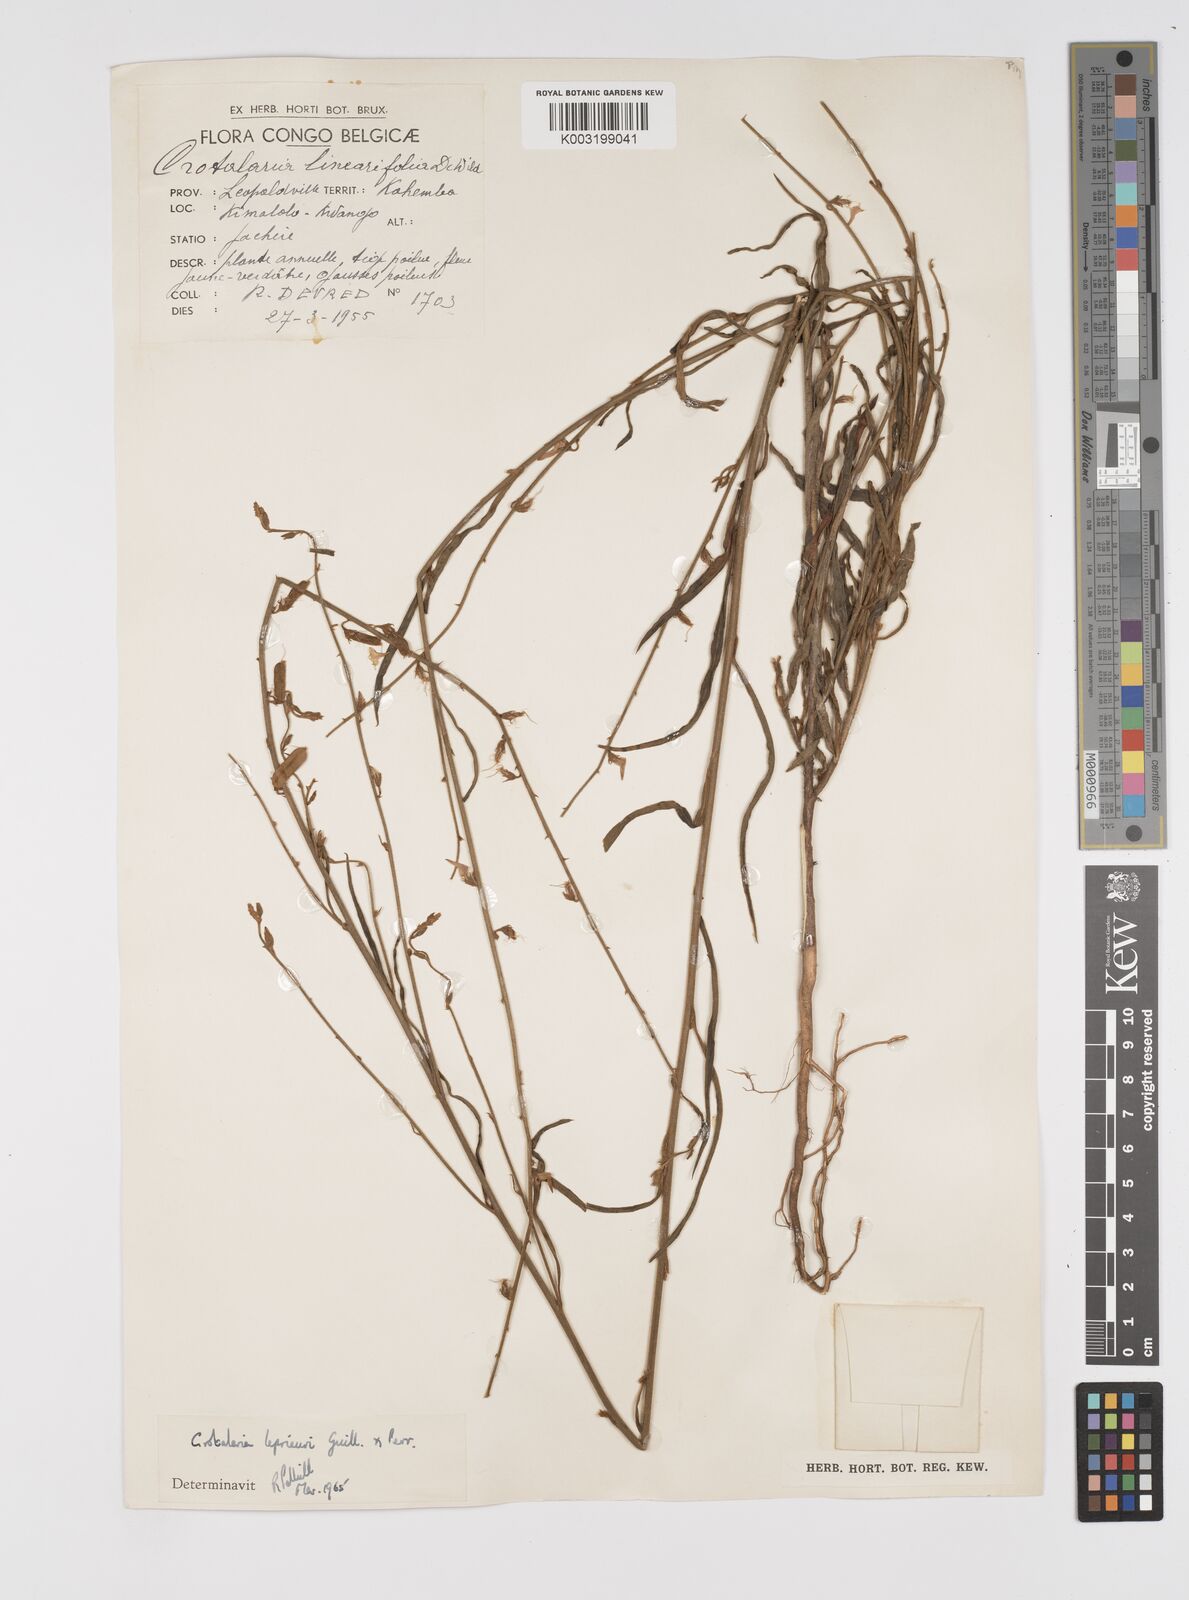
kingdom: Plantae
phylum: Tracheophyta
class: Magnoliopsida
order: Fabales
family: Fabaceae
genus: Crotalaria
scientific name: Crotalaria leprieurii
